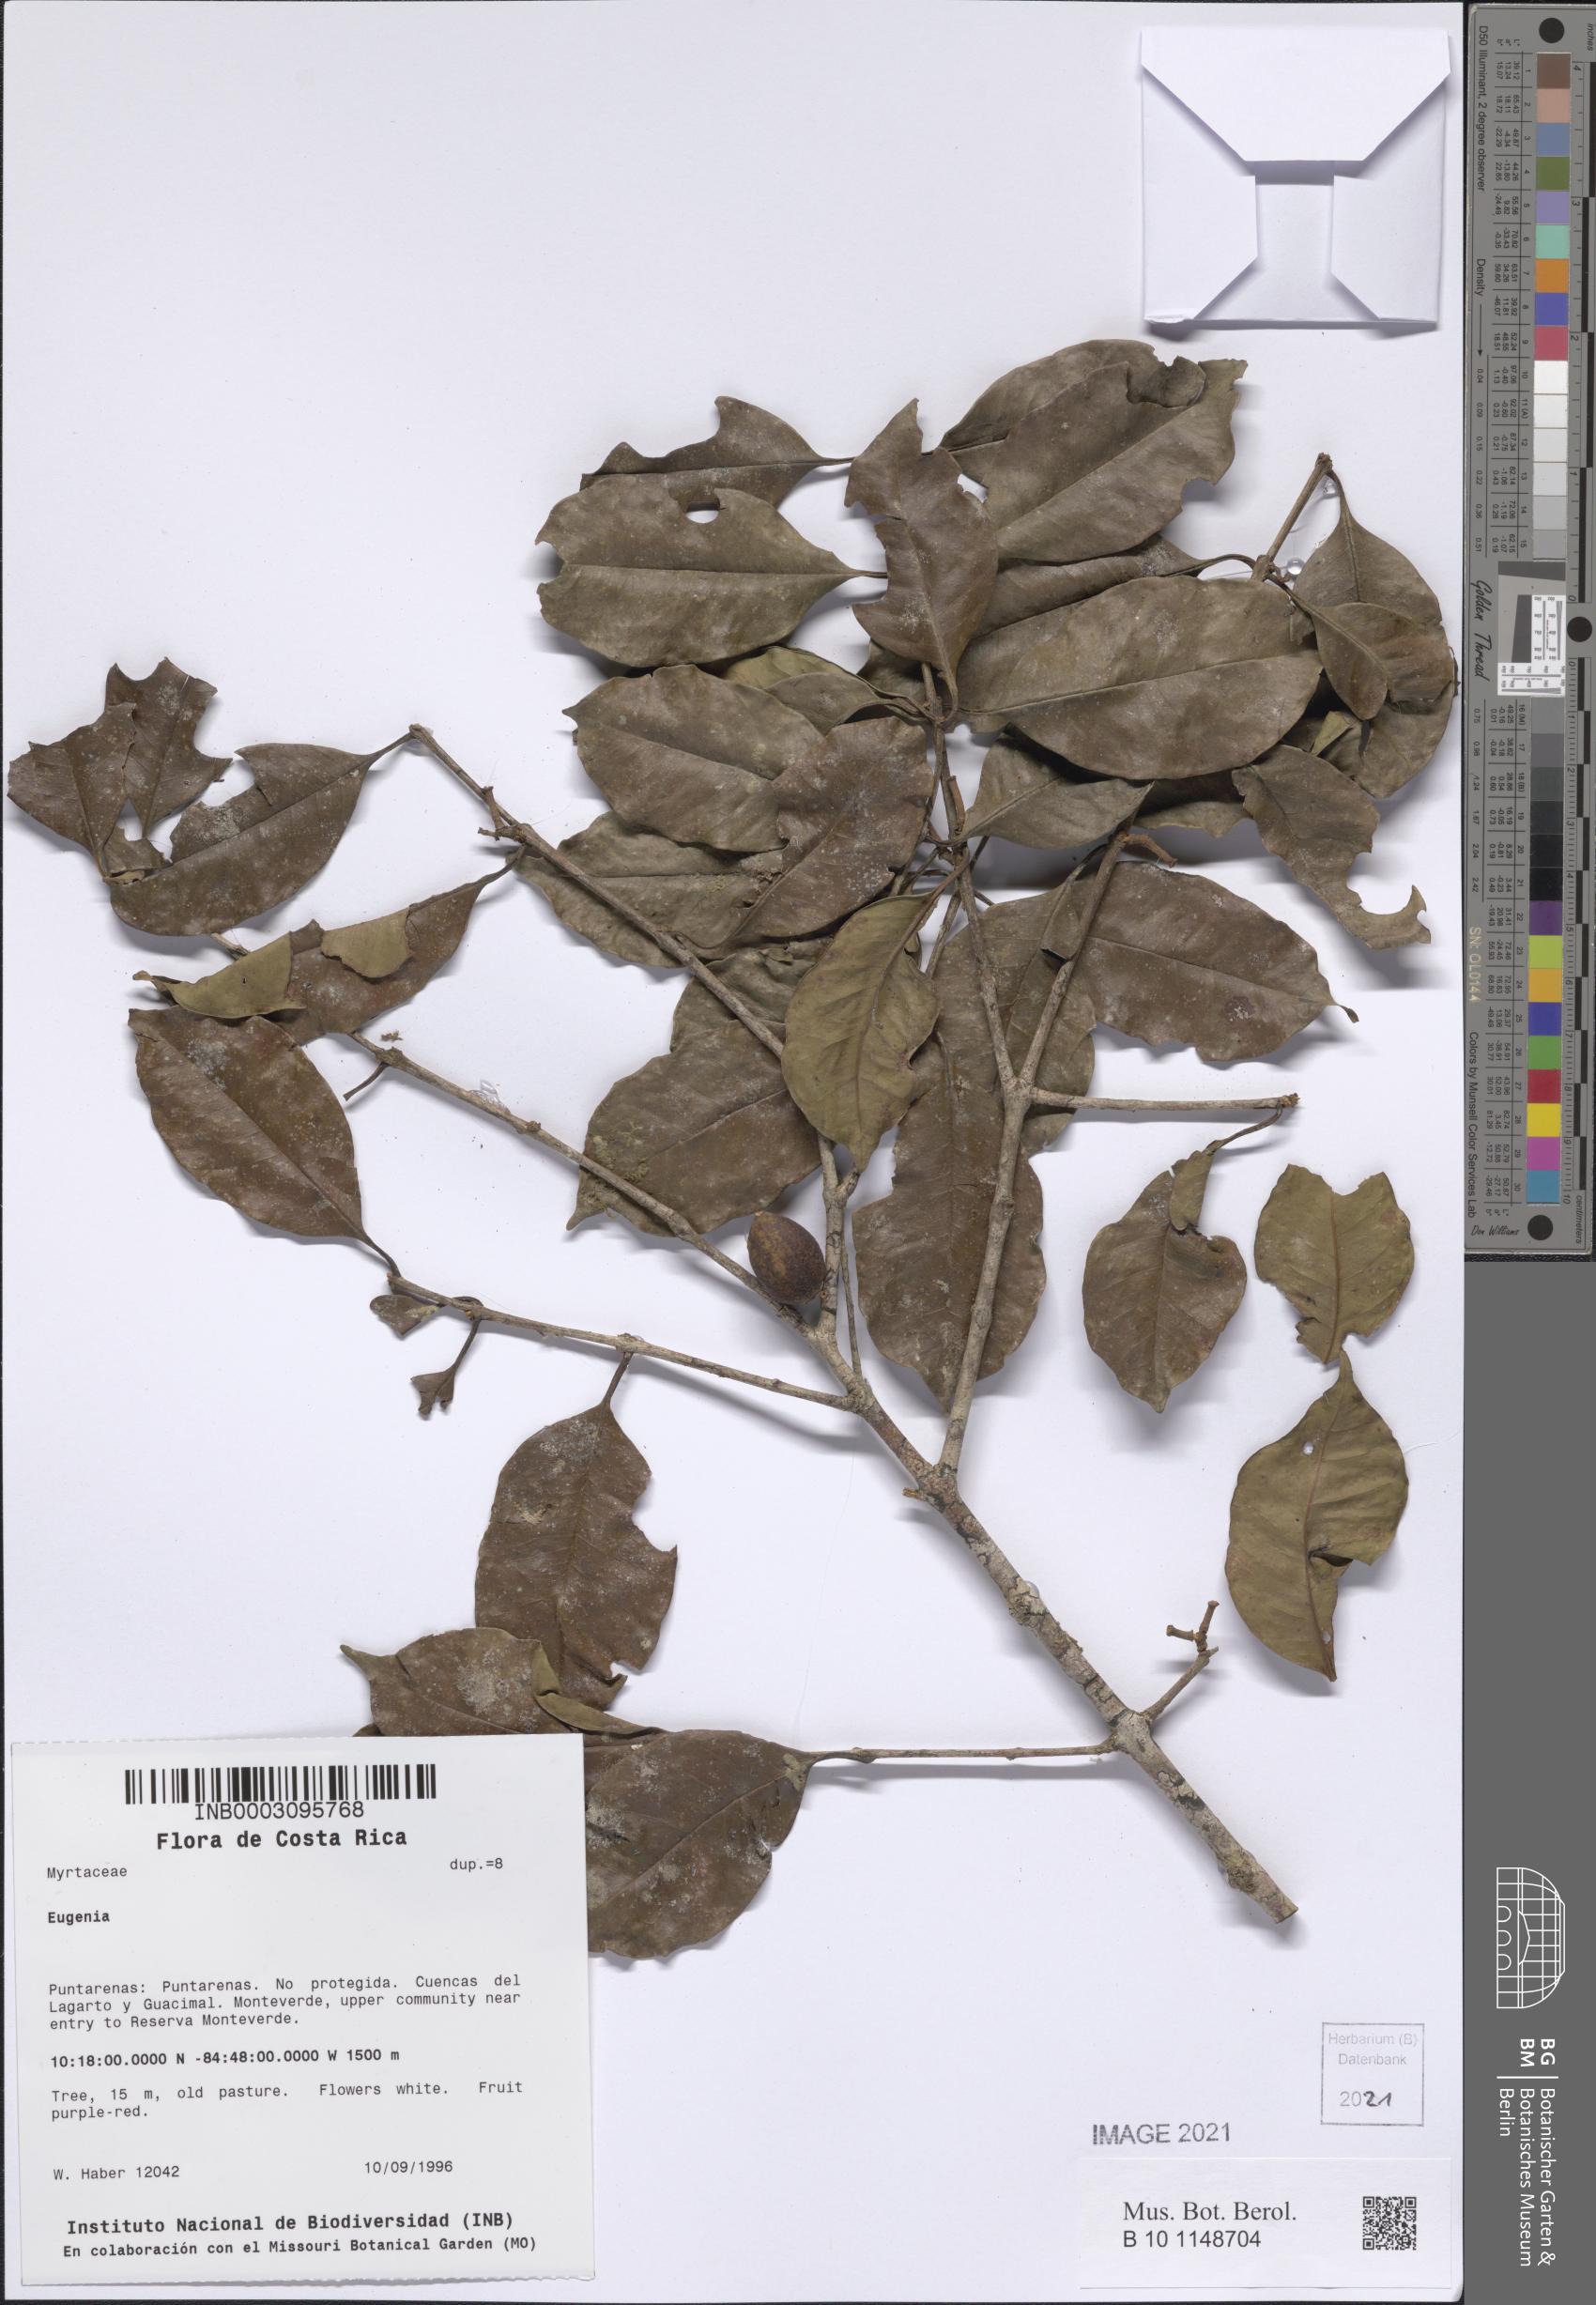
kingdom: Plantae
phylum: Tracheophyta
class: Magnoliopsida
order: Myrtales
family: Myrtaceae
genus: Eugenia
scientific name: Eugenia
